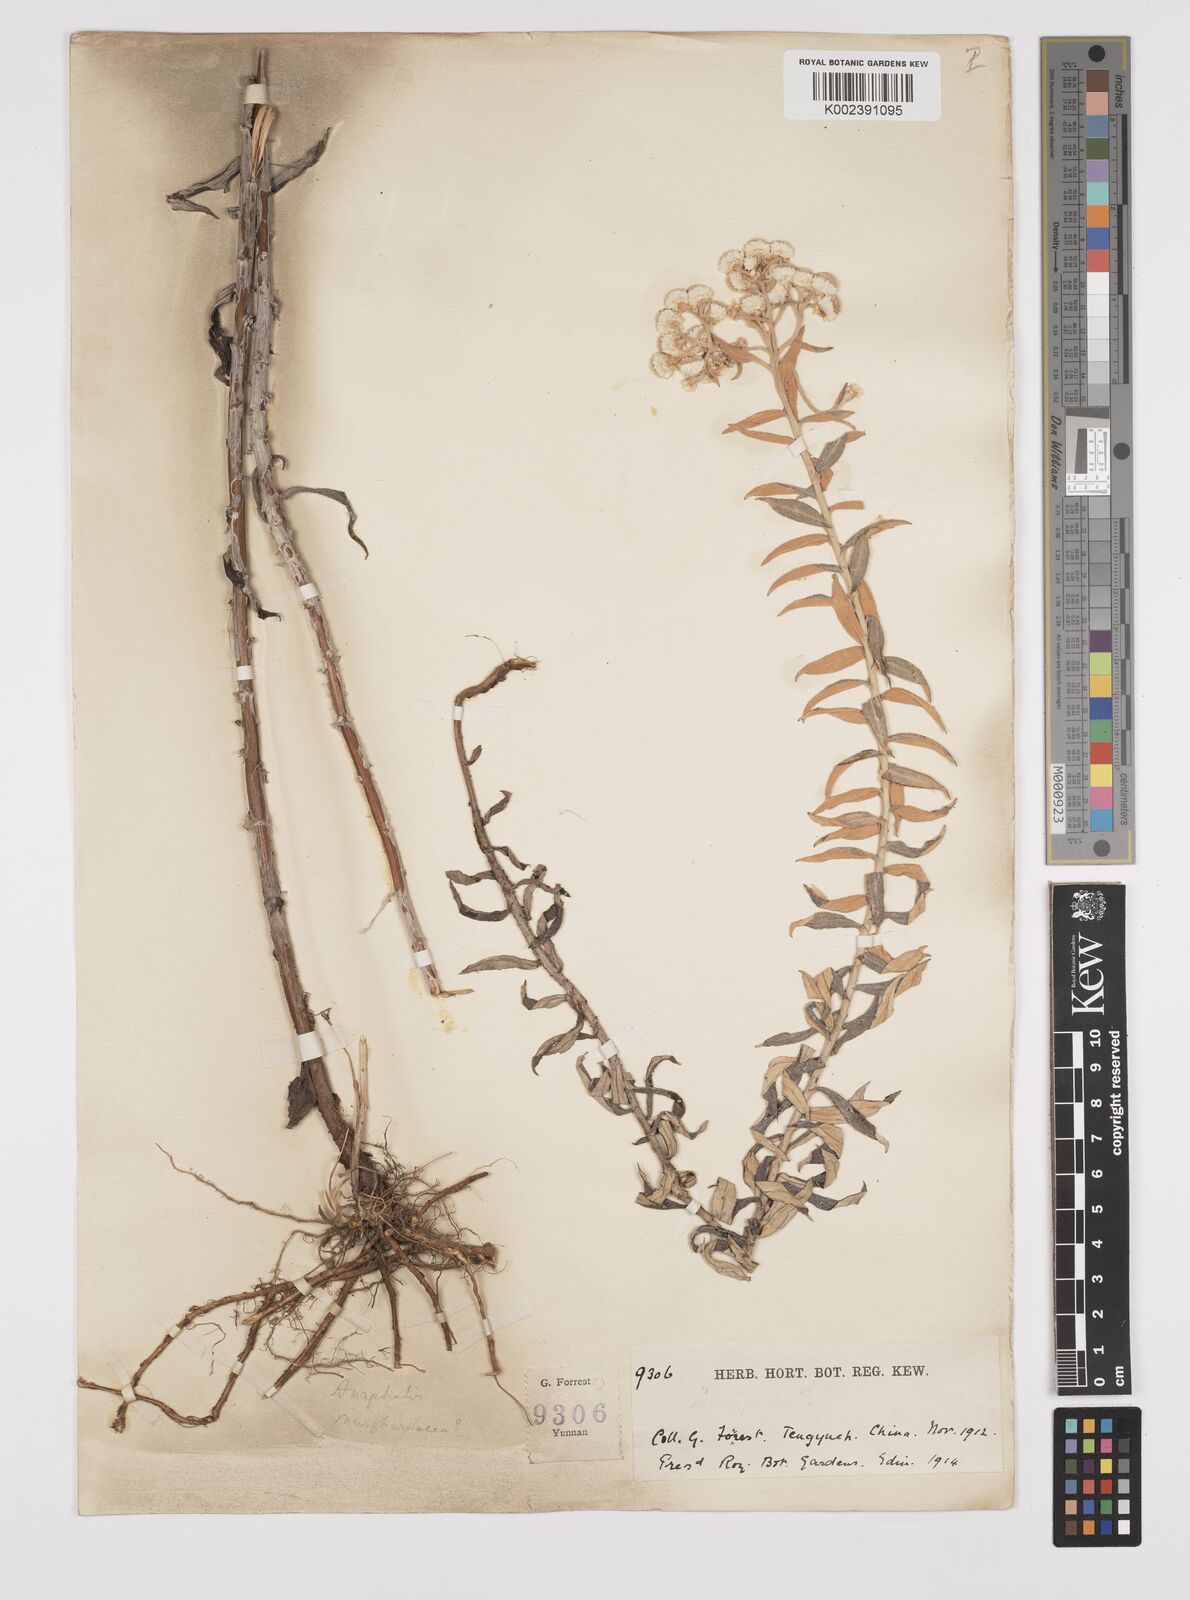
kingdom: Plantae
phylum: Tracheophyta
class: Magnoliopsida
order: Asterales
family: Asteraceae
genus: Anaphalis
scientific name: Anaphalis margaritacea
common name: Pearly everlasting
